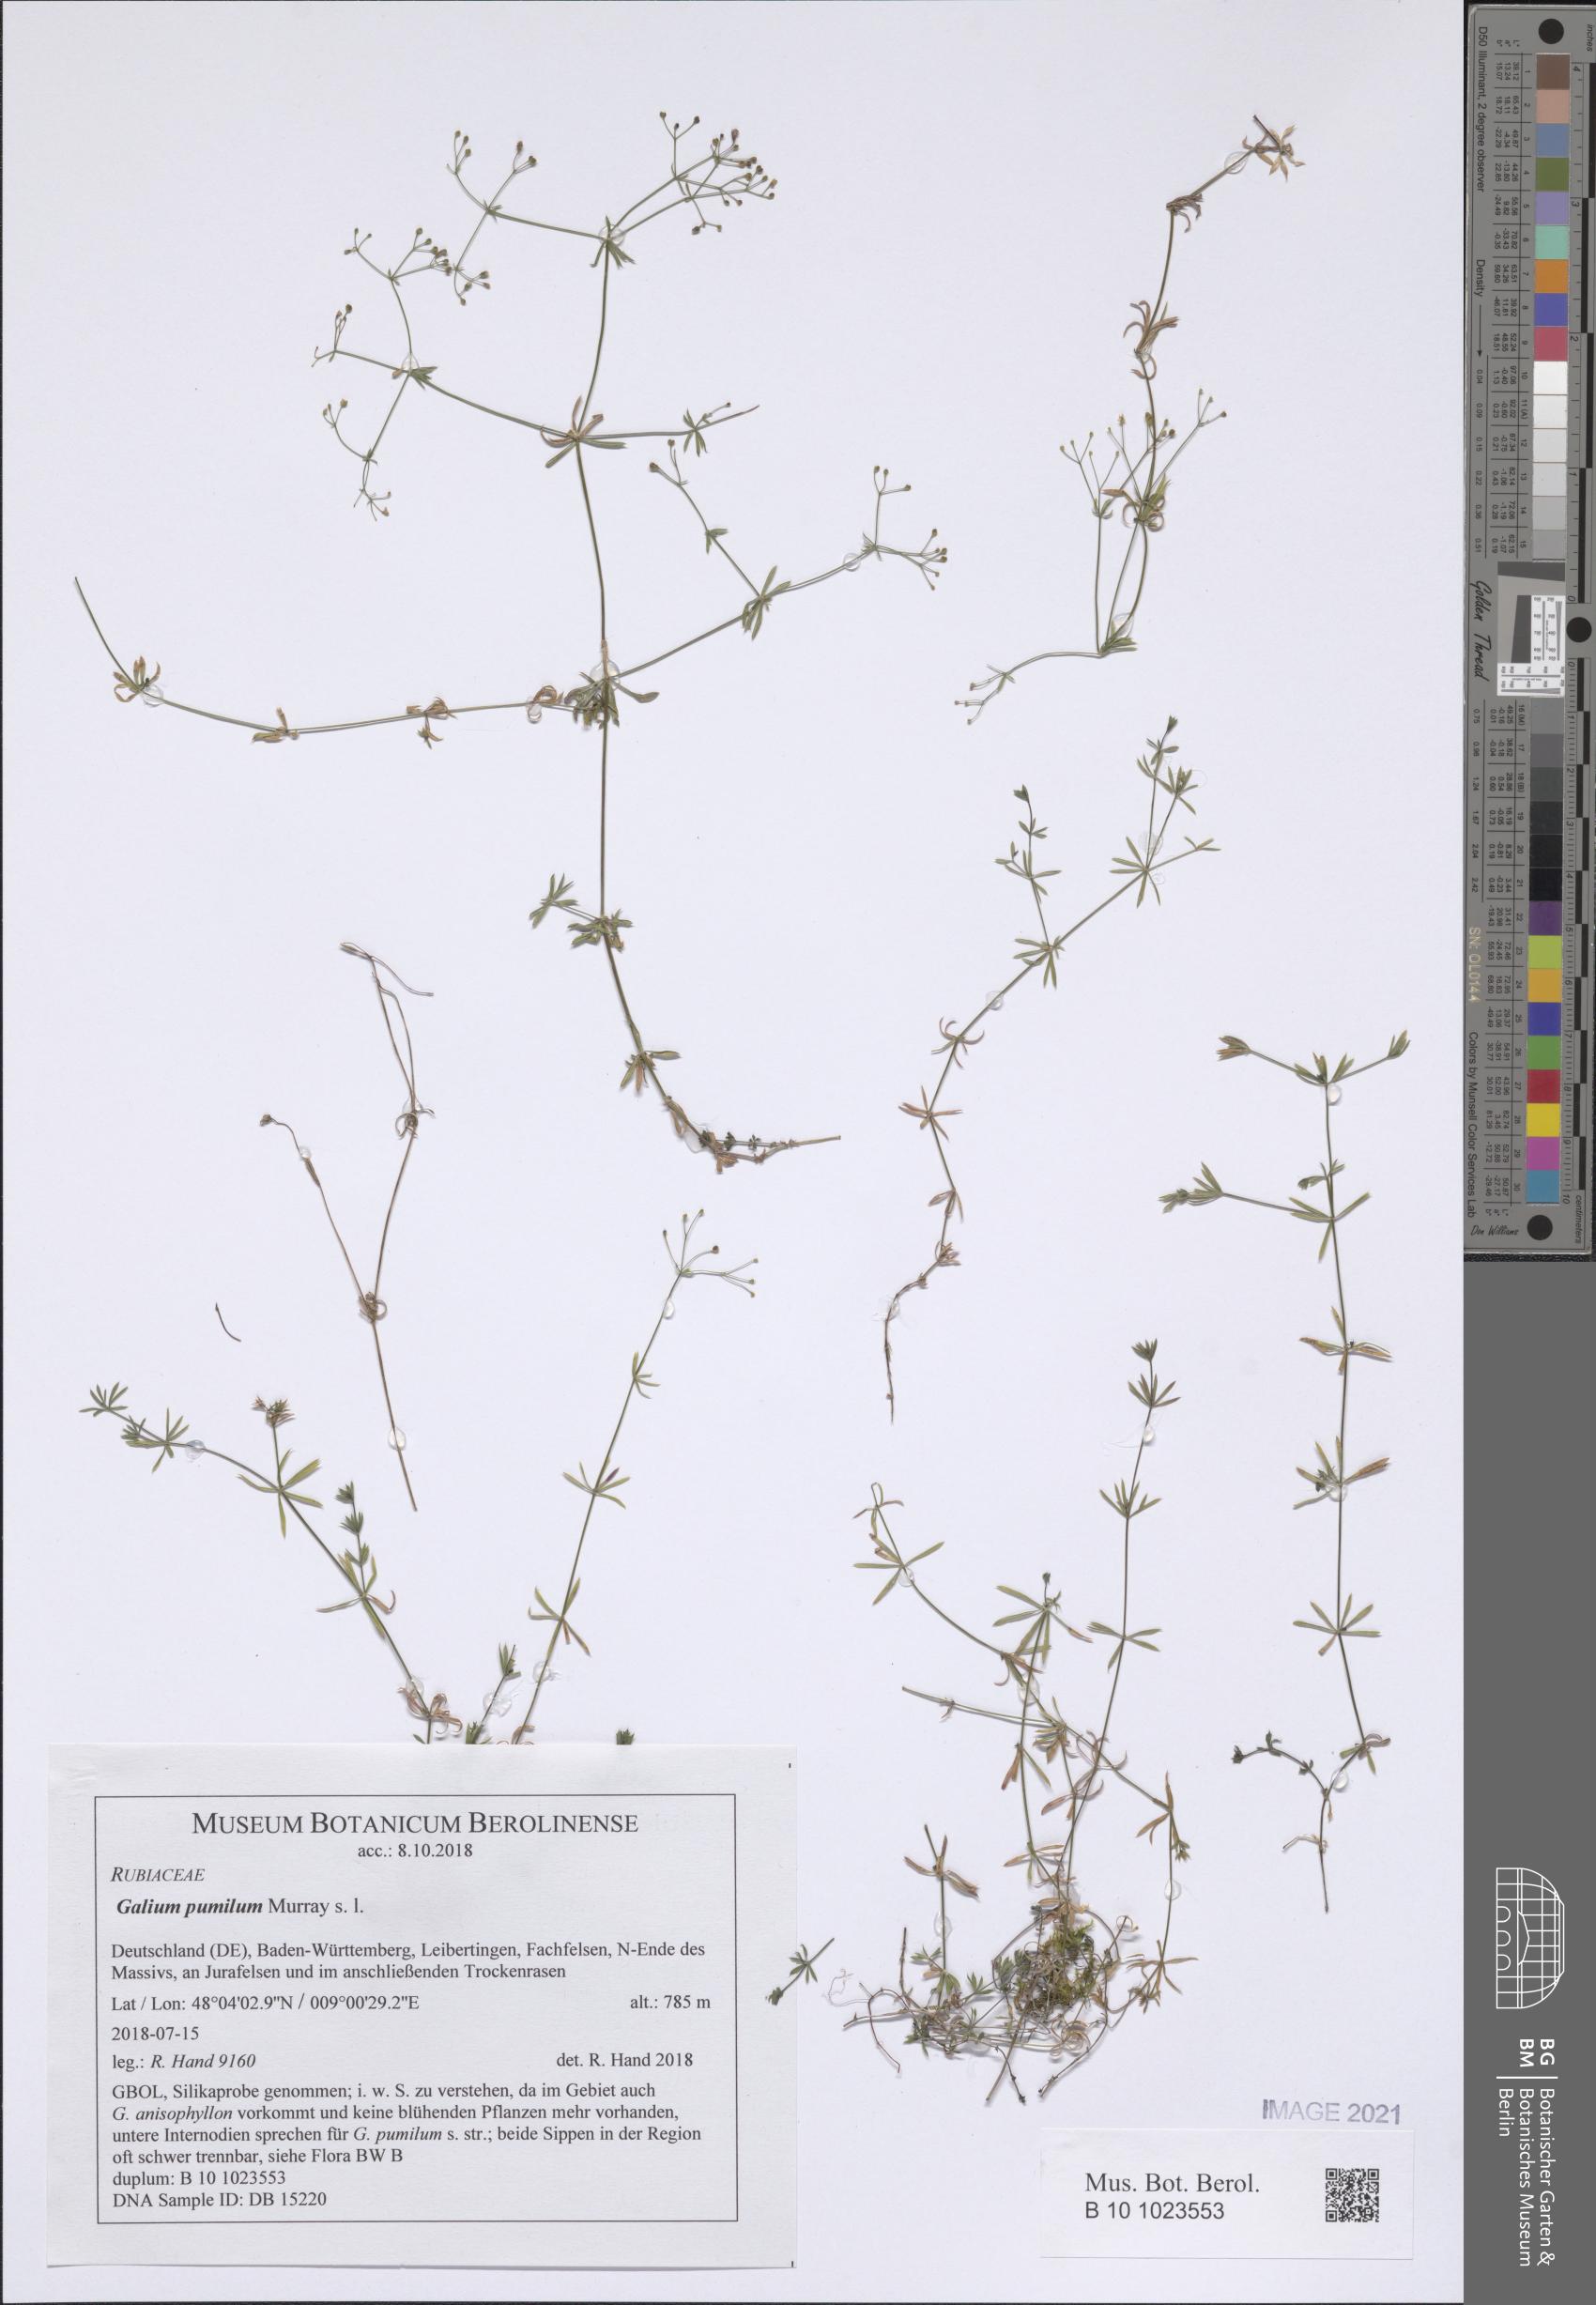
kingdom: Plantae
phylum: Tracheophyta
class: Magnoliopsida
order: Gentianales
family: Rubiaceae
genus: Galium
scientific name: Galium pumilum
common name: Slender bedstraw
